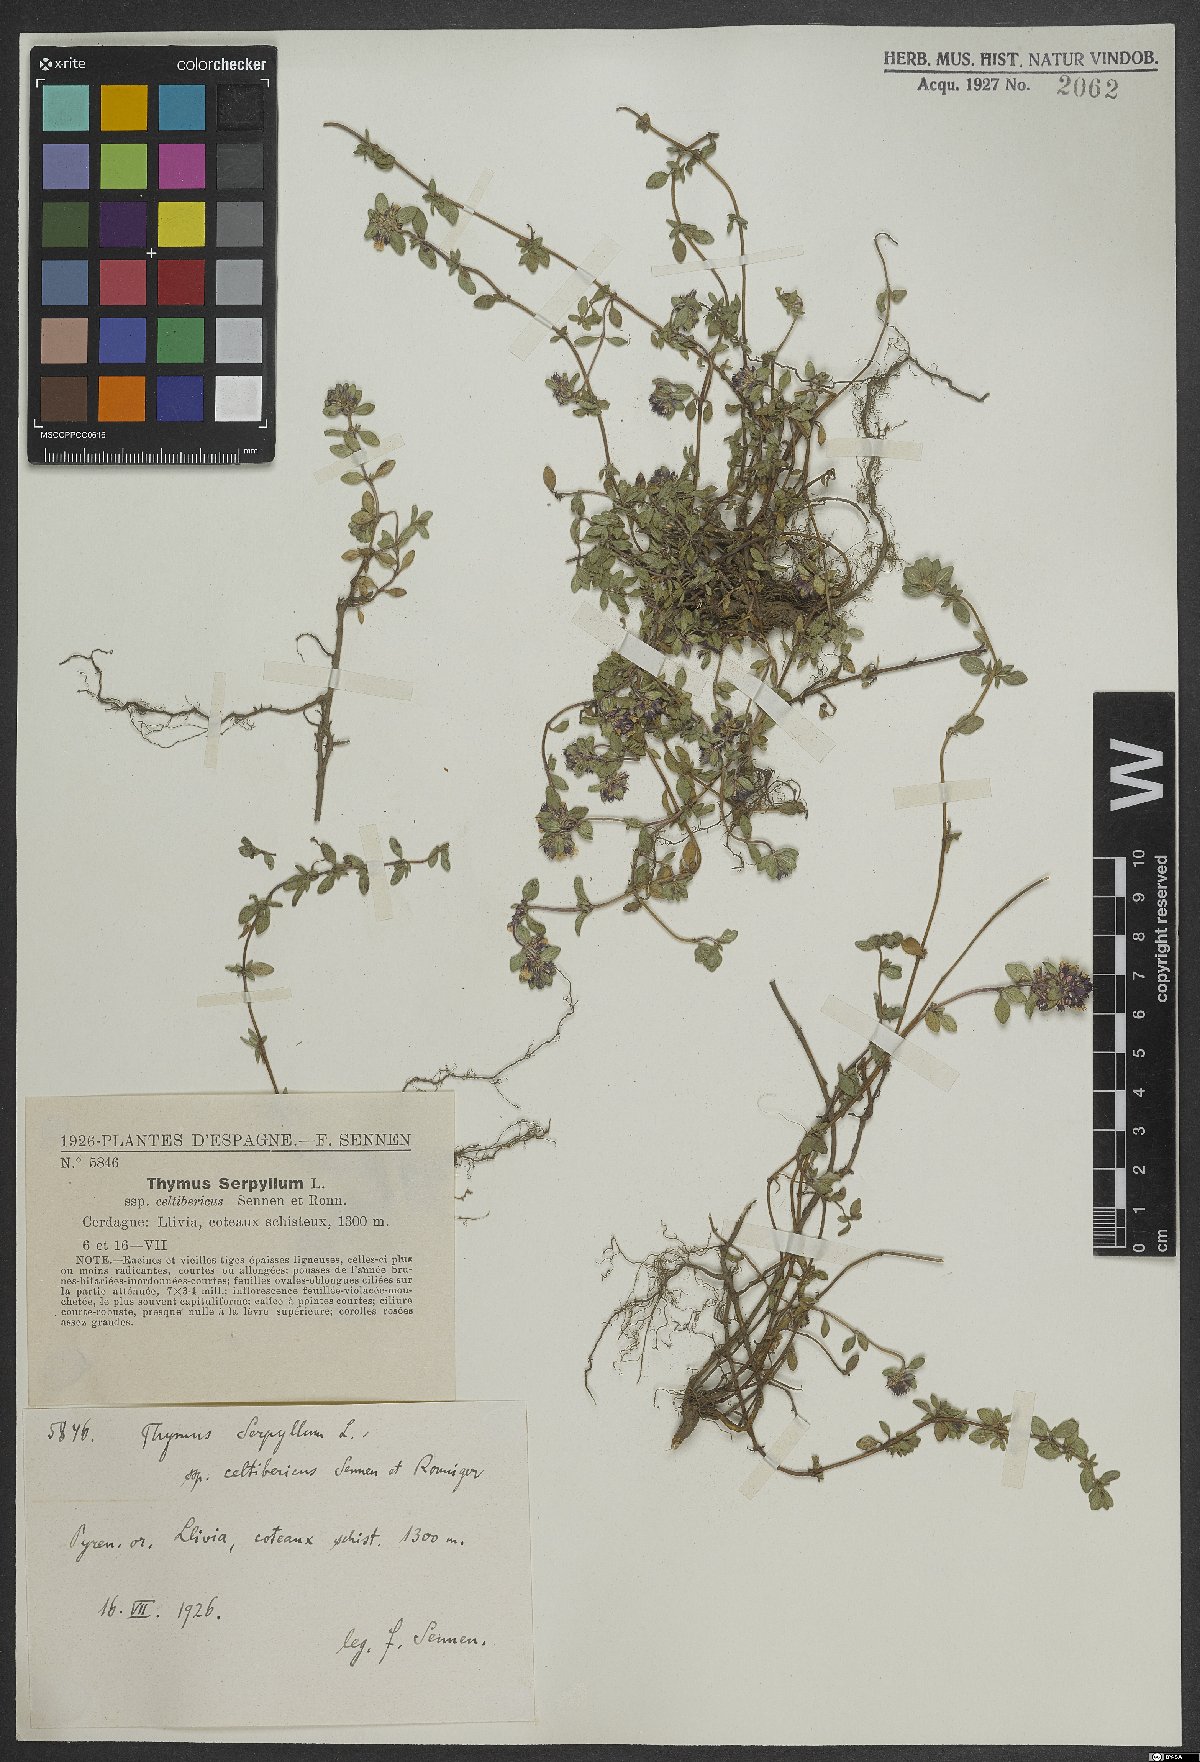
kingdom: Plantae
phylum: Tracheophyta
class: Magnoliopsida
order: Lamiales
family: Lamiaceae
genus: Thymus
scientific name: Thymus serpyllum
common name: Breckland thyme
